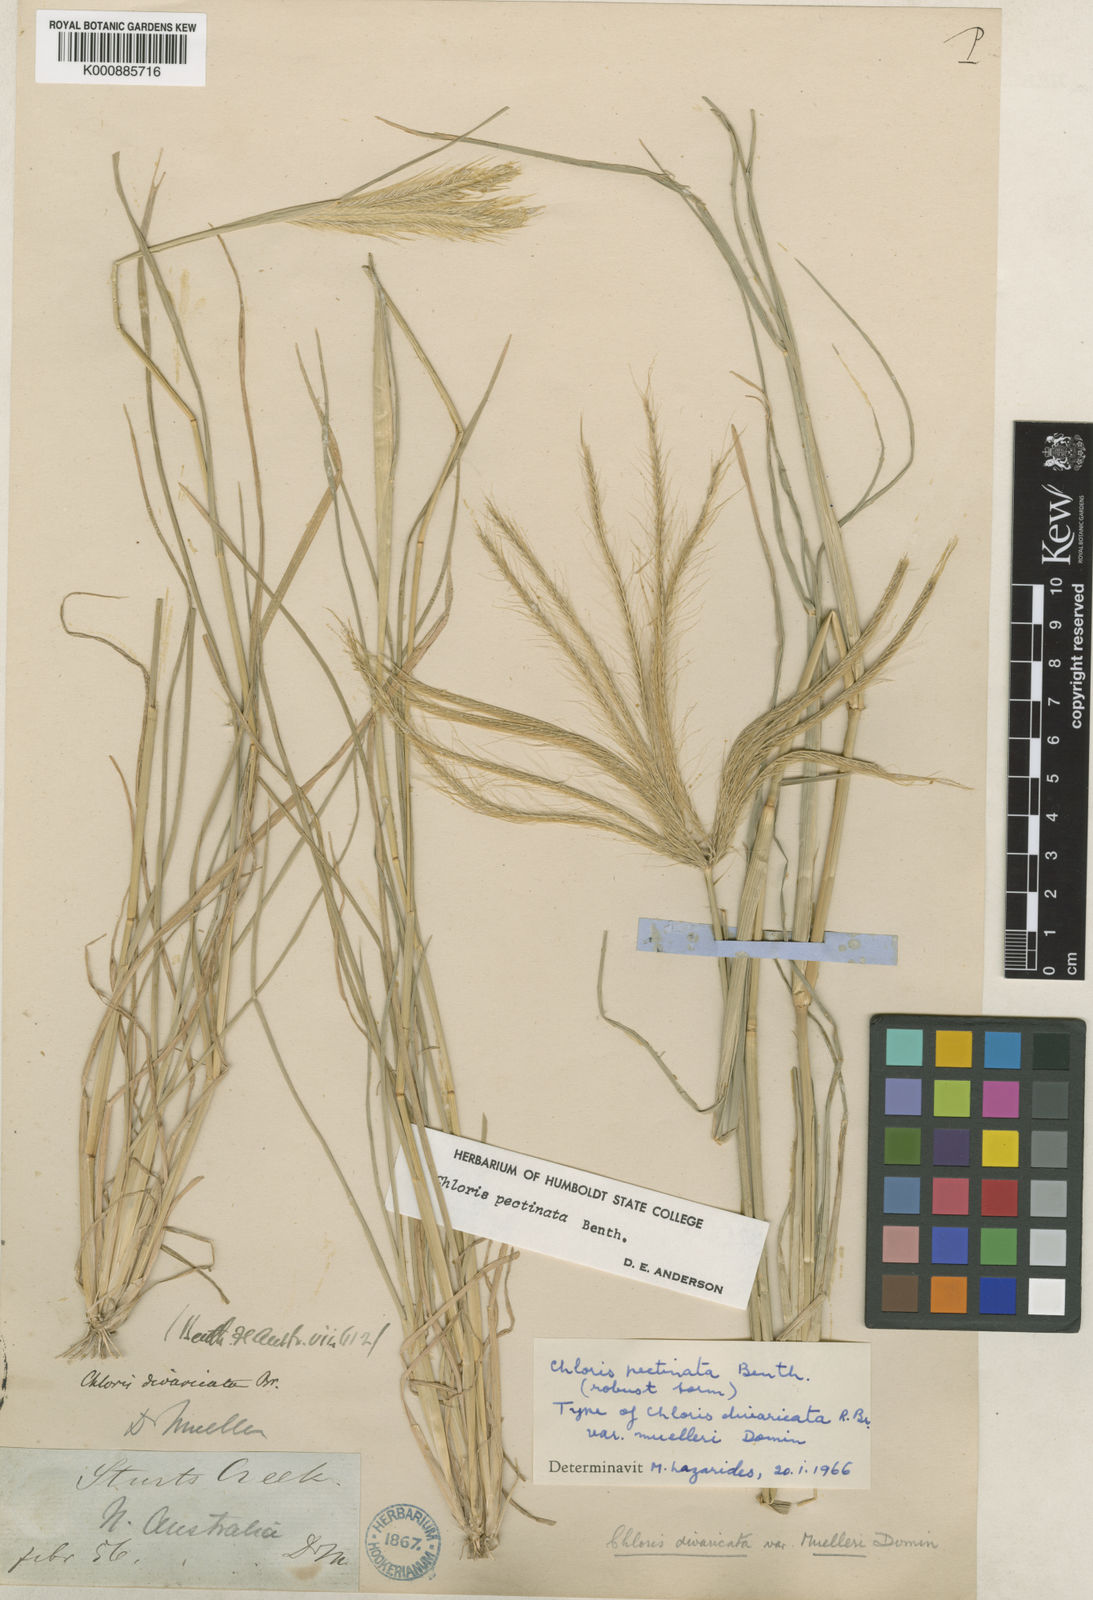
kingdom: Plantae
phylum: Tracheophyta
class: Liliopsida
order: Poales
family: Poaceae
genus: Chloris
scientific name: Chloris pectinata
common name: Comb windmill grass
